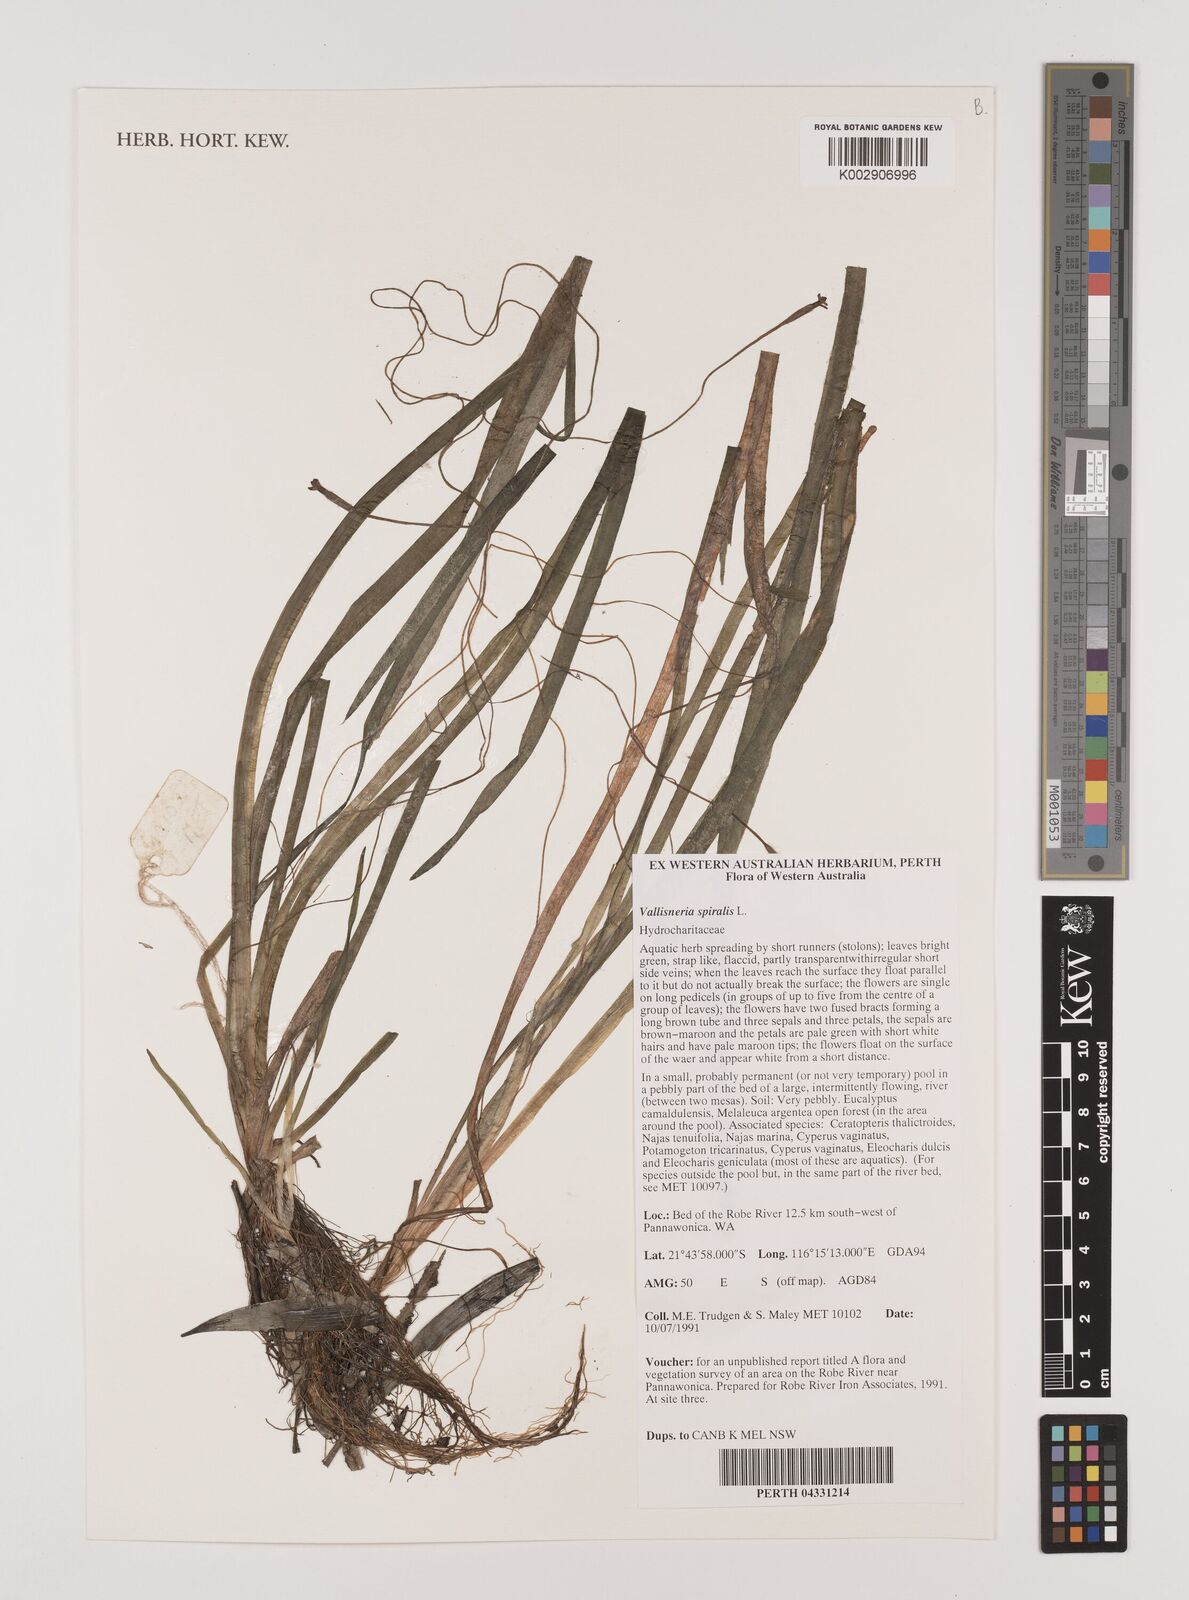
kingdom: Plantae
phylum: Tracheophyta
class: Liliopsida
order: Alismatales
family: Hydrocharitaceae
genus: Vallisneria
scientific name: Vallisneria spiralis
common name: Tapegrass
